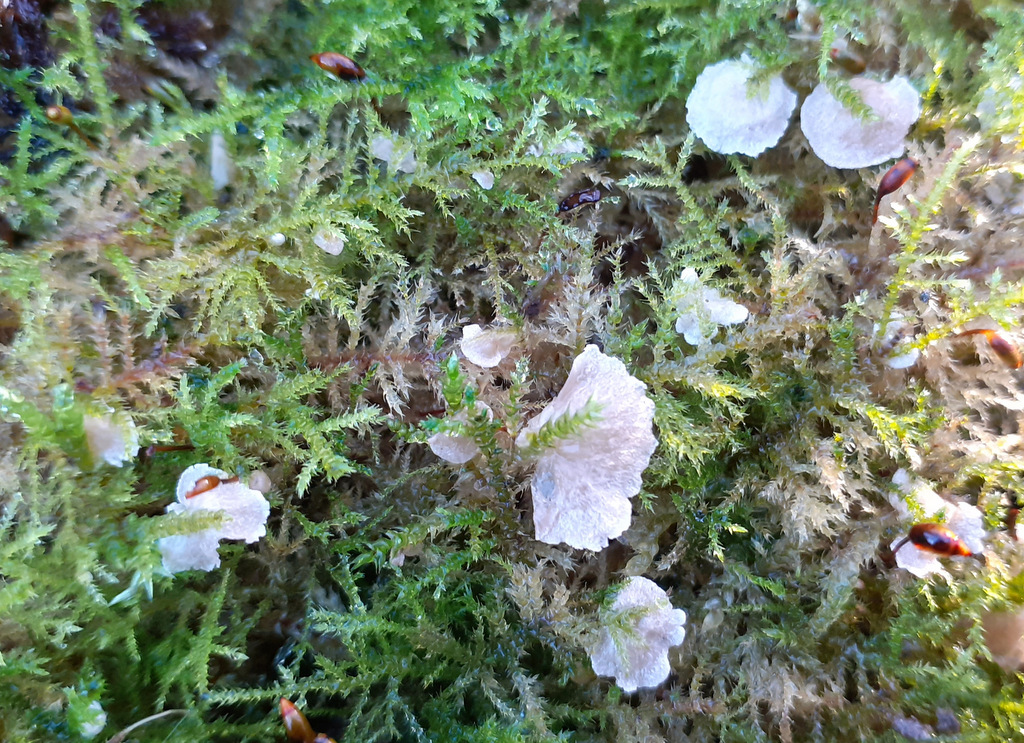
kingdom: Fungi
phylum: Basidiomycota
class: Agaricomycetes
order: Agaricales
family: Hygrophoraceae
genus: Arrhenia
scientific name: Arrhenia retiruga
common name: lille fontænehat
